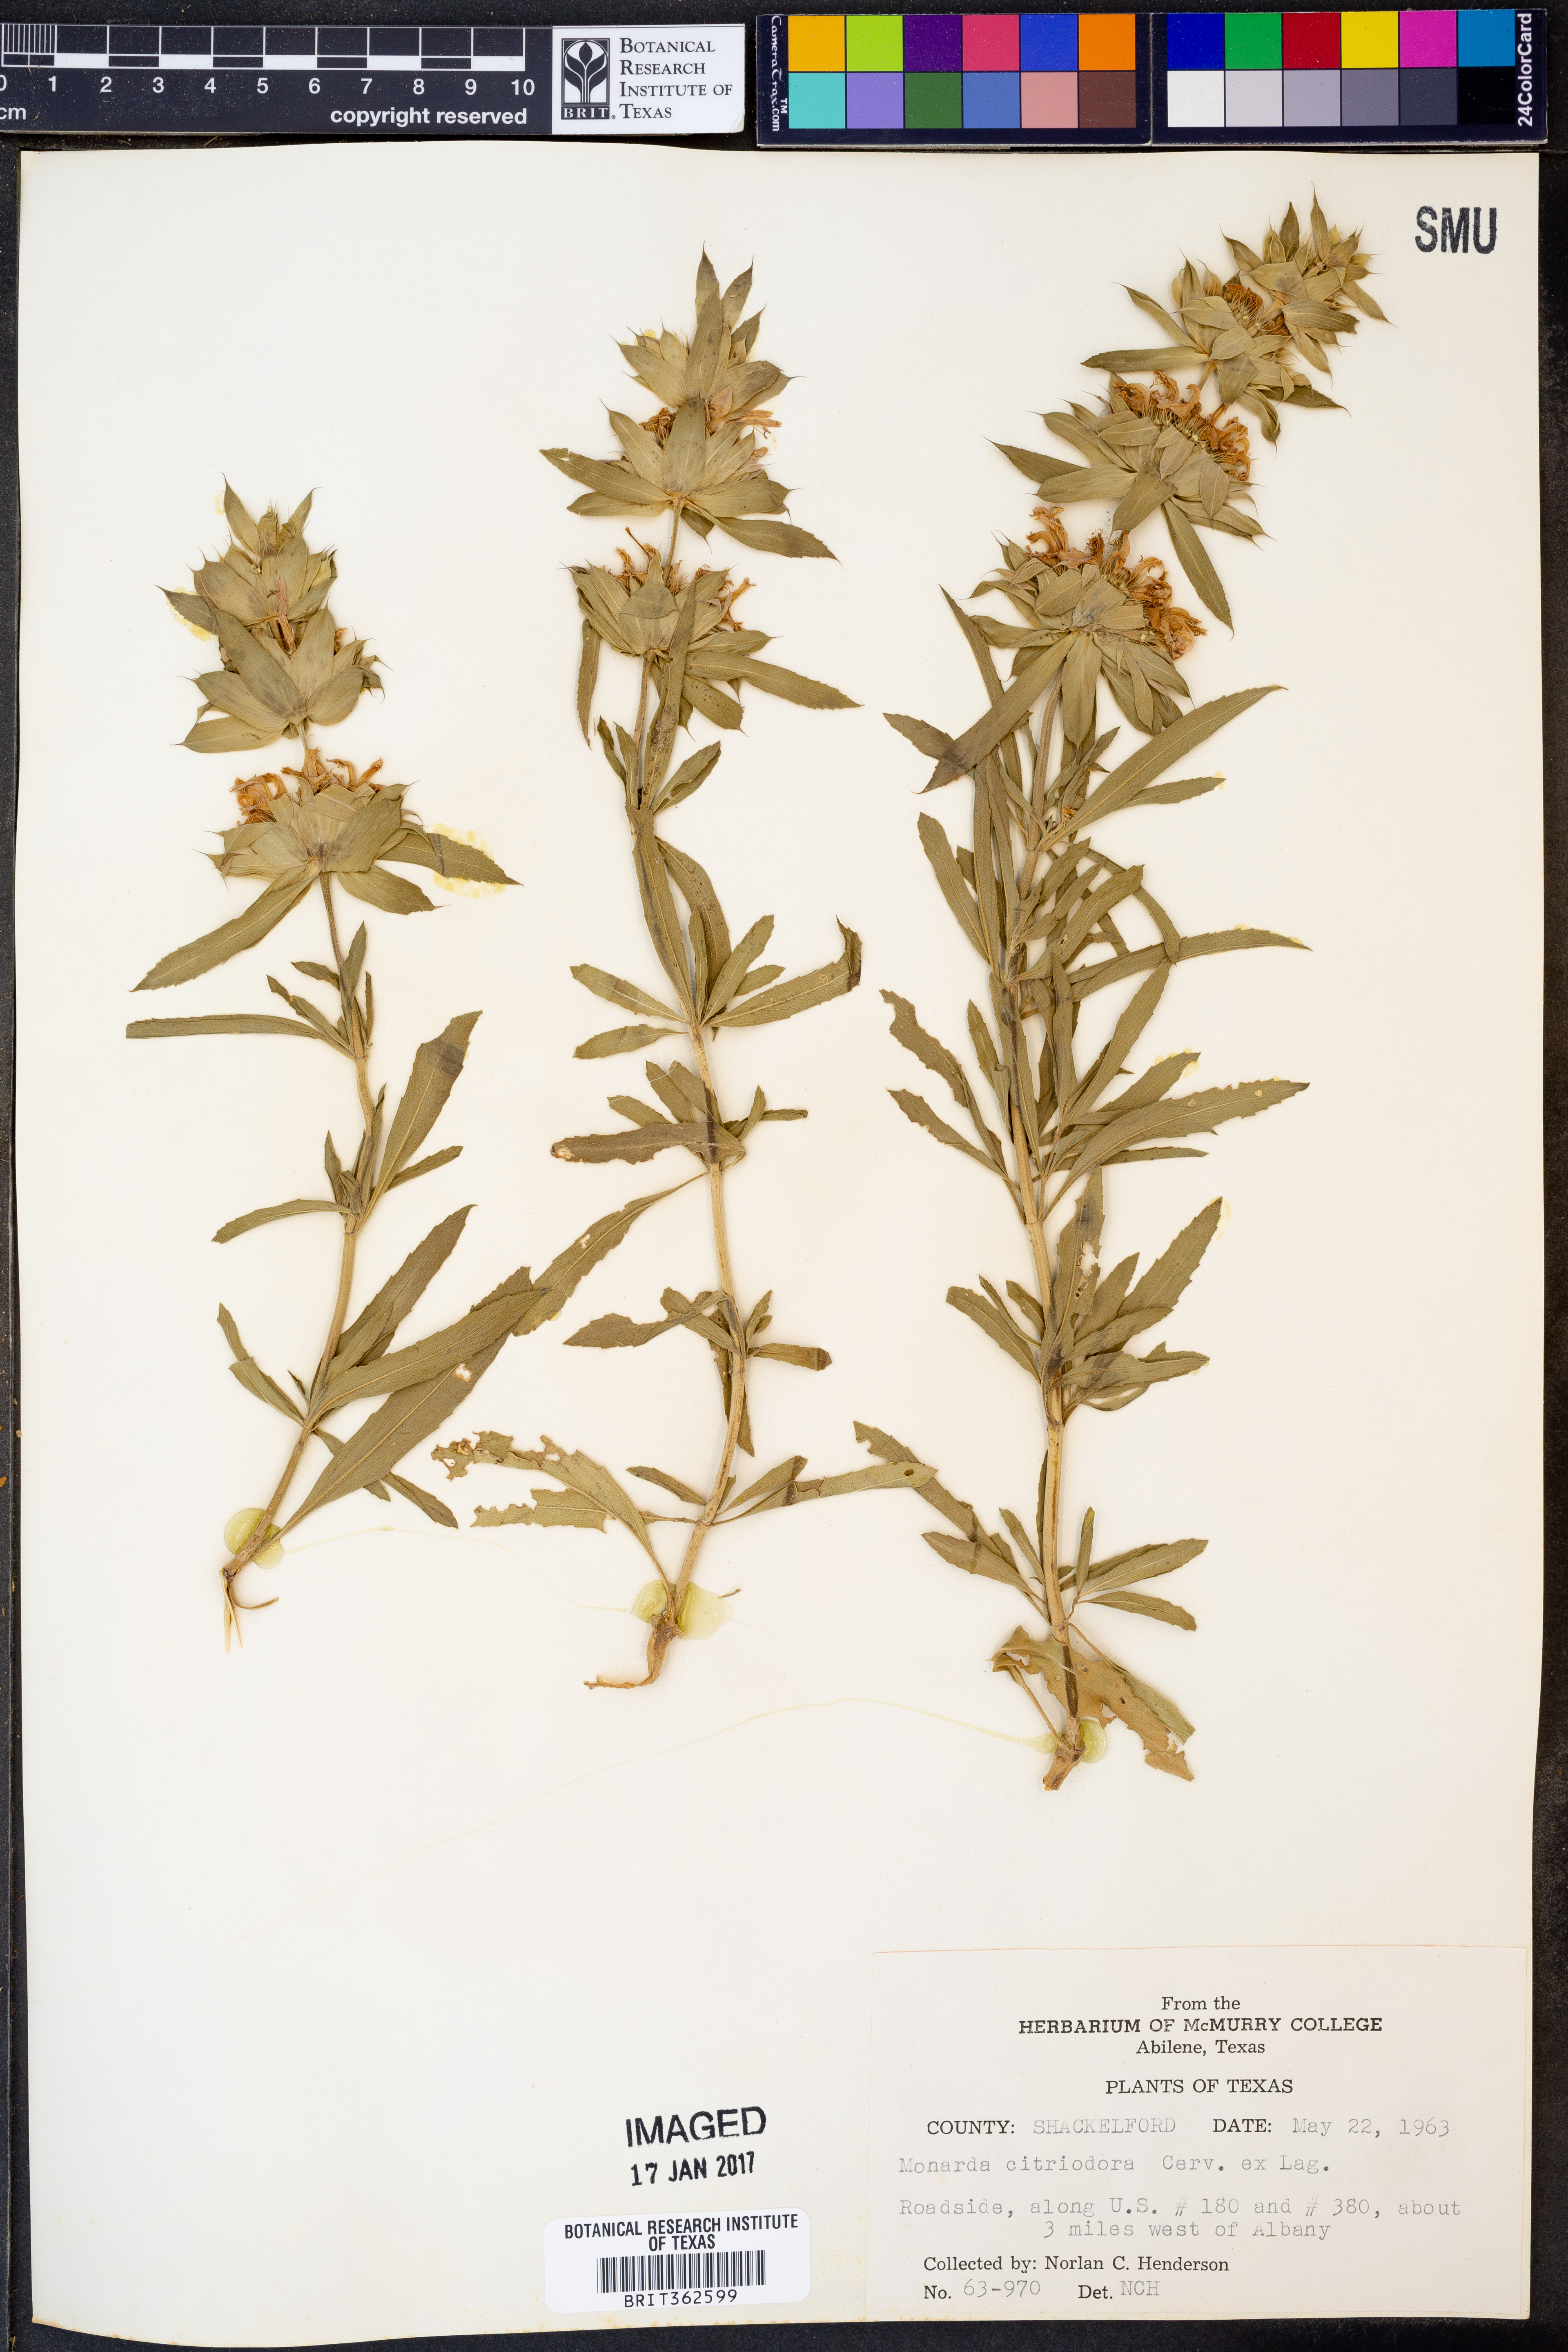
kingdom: Plantae
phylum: Tracheophyta
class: Magnoliopsida
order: Lamiales
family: Lamiaceae
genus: Monarda
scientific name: Monarda citriodora
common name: Lemon beebalm
